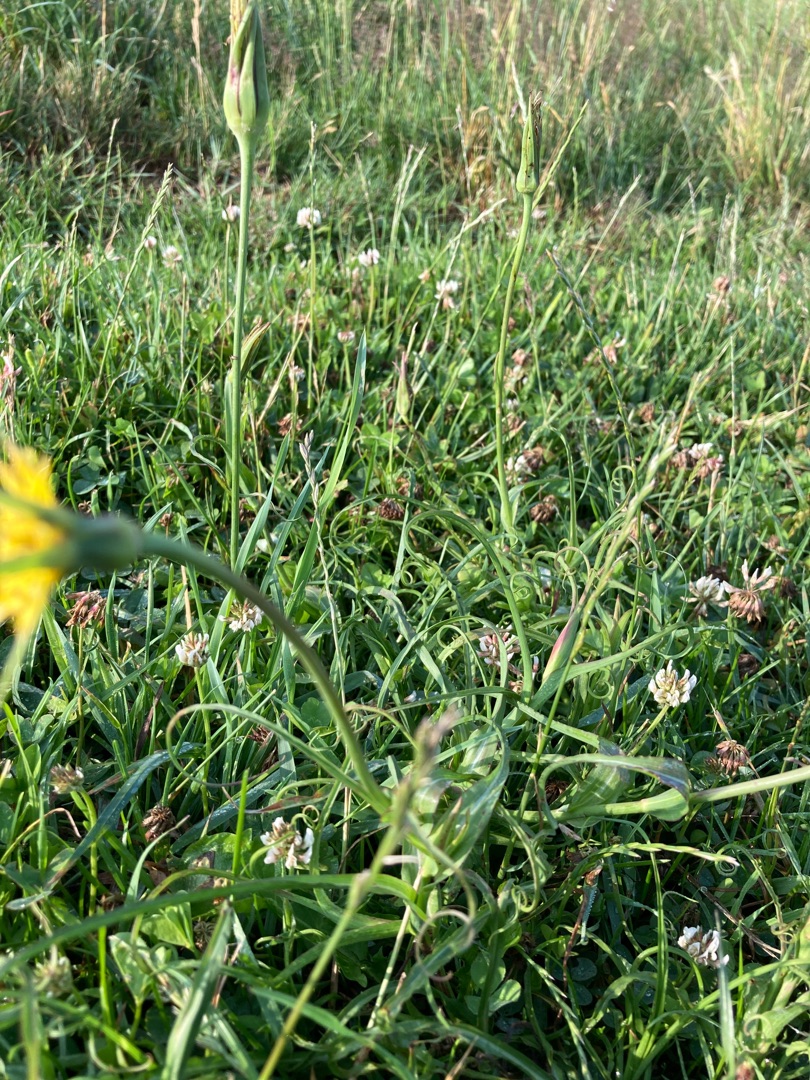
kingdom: Plantae
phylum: Tracheophyta
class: Magnoliopsida
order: Asterales
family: Asteraceae
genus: Tragopogon
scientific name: Tragopogon minor
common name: Småkronet gedeskæg
